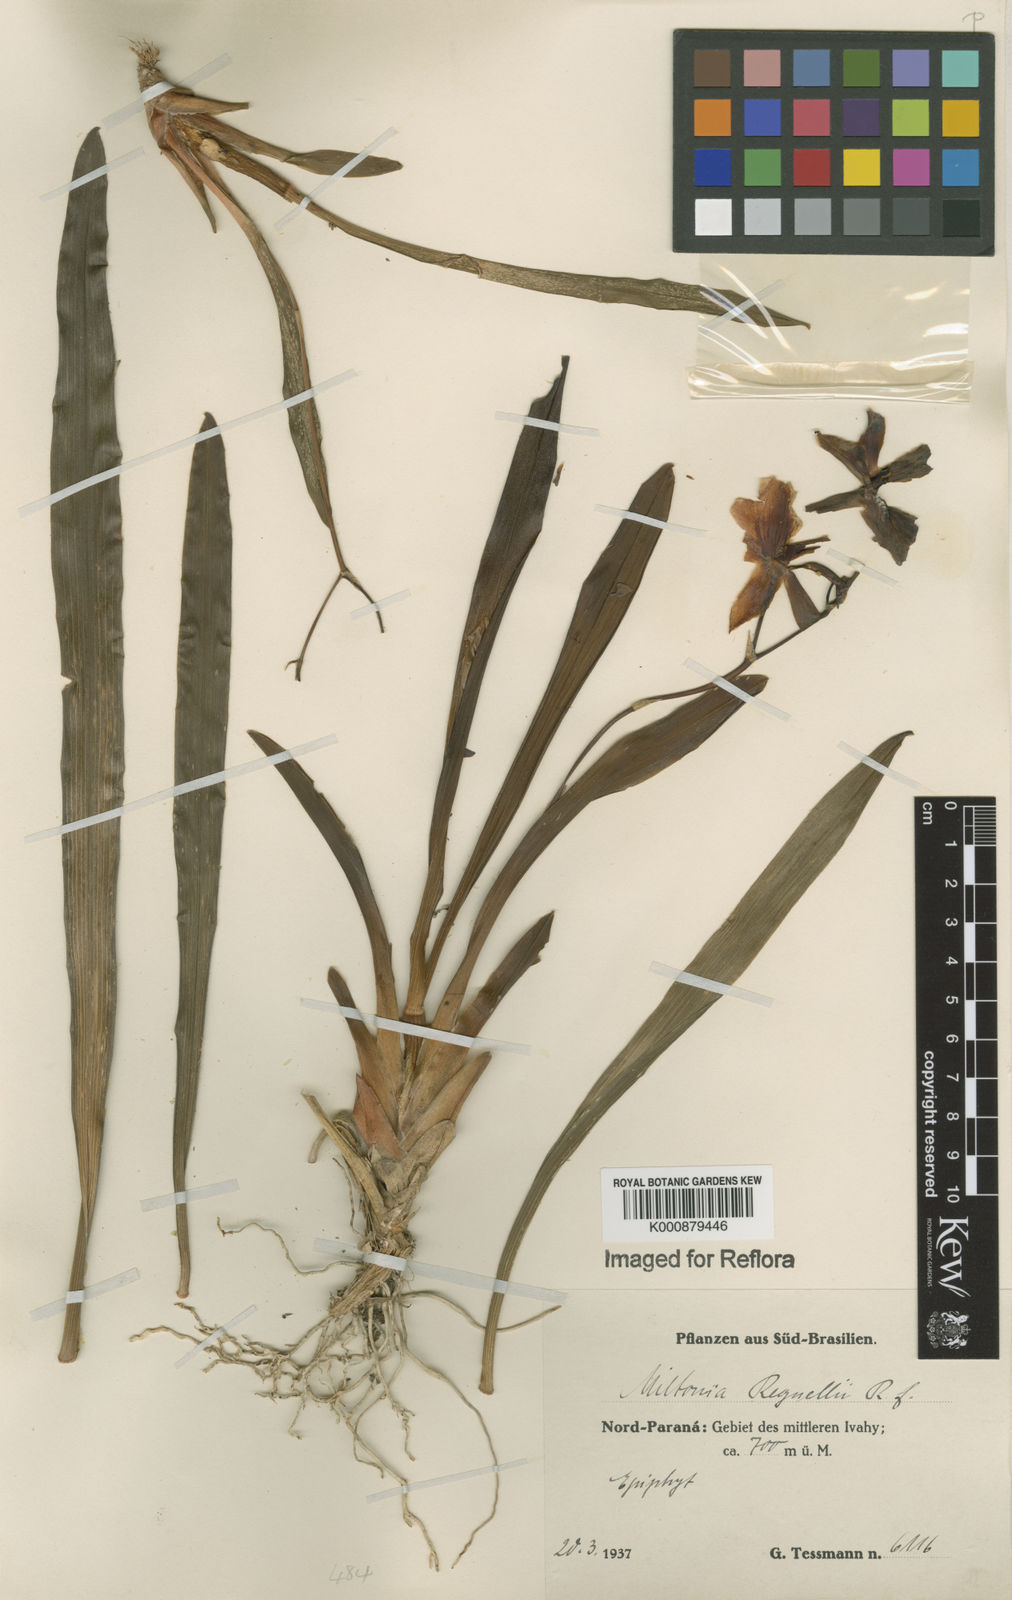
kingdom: Plantae
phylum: Tracheophyta
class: Liliopsida
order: Asparagales
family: Orchidaceae
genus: Miltonia
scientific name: Miltonia regnellii
